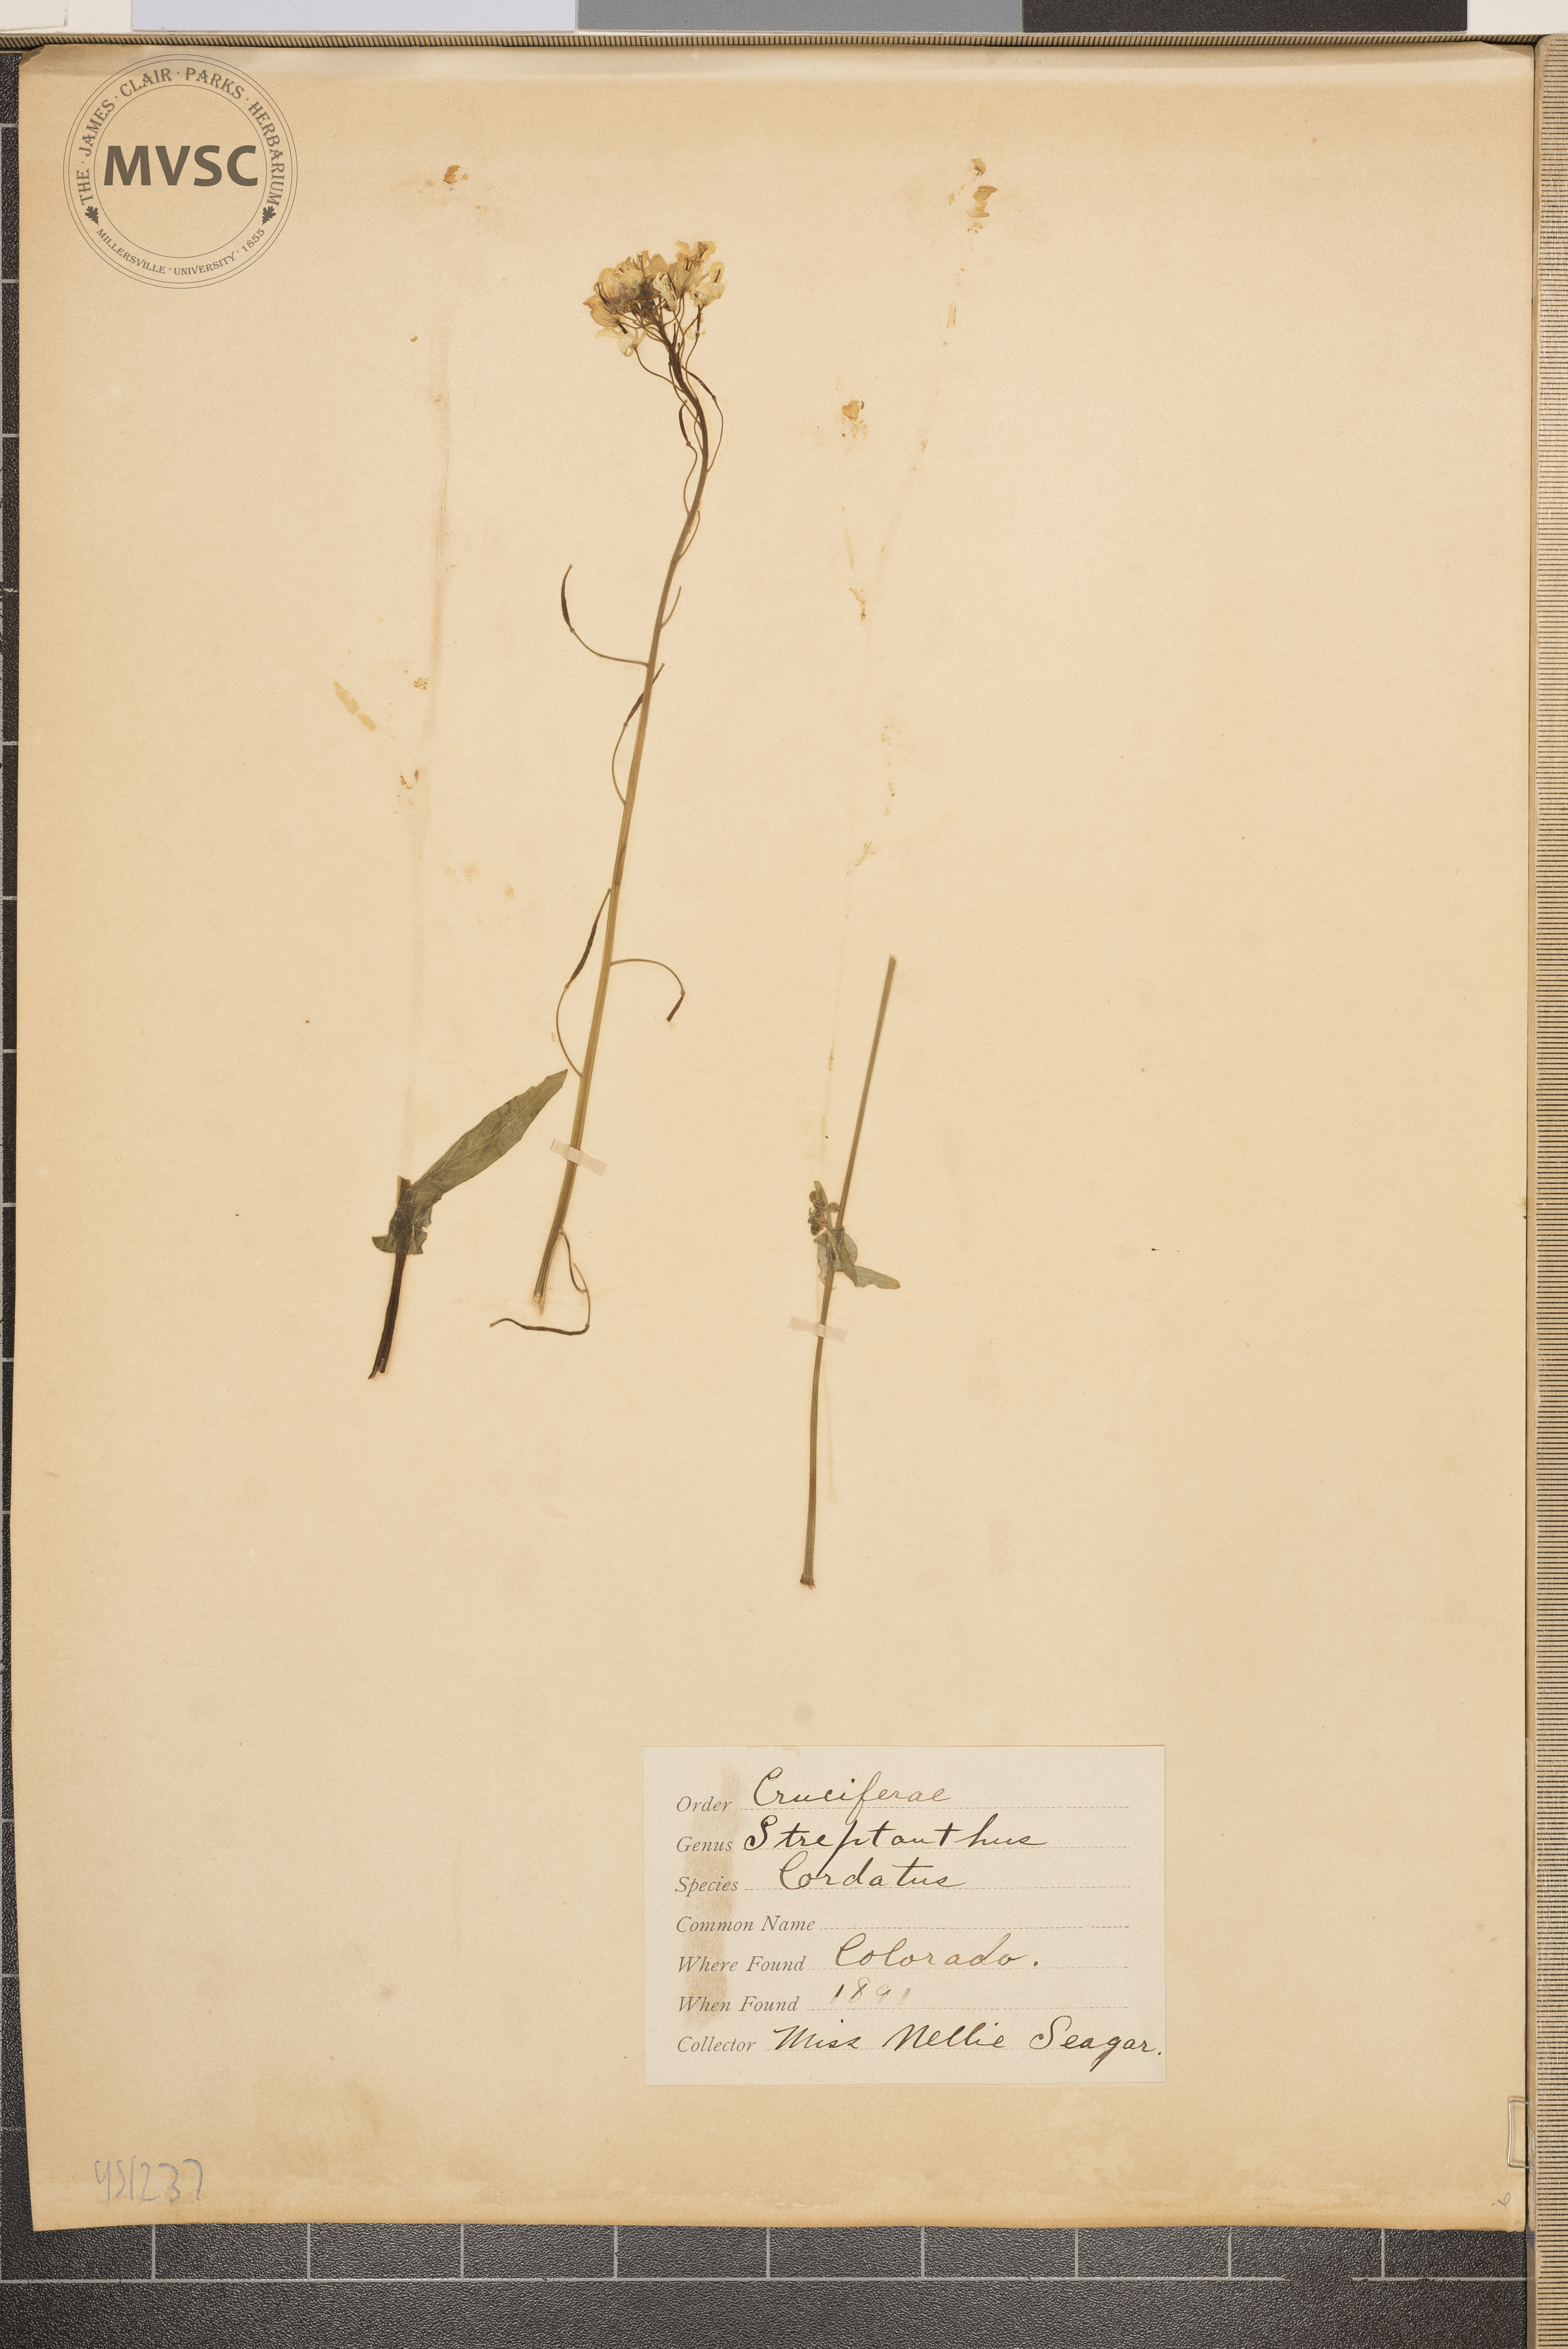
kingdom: Plantae
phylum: Tracheophyta
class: Magnoliopsida
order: Brassicales
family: Brassicaceae
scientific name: Brassicaceae
